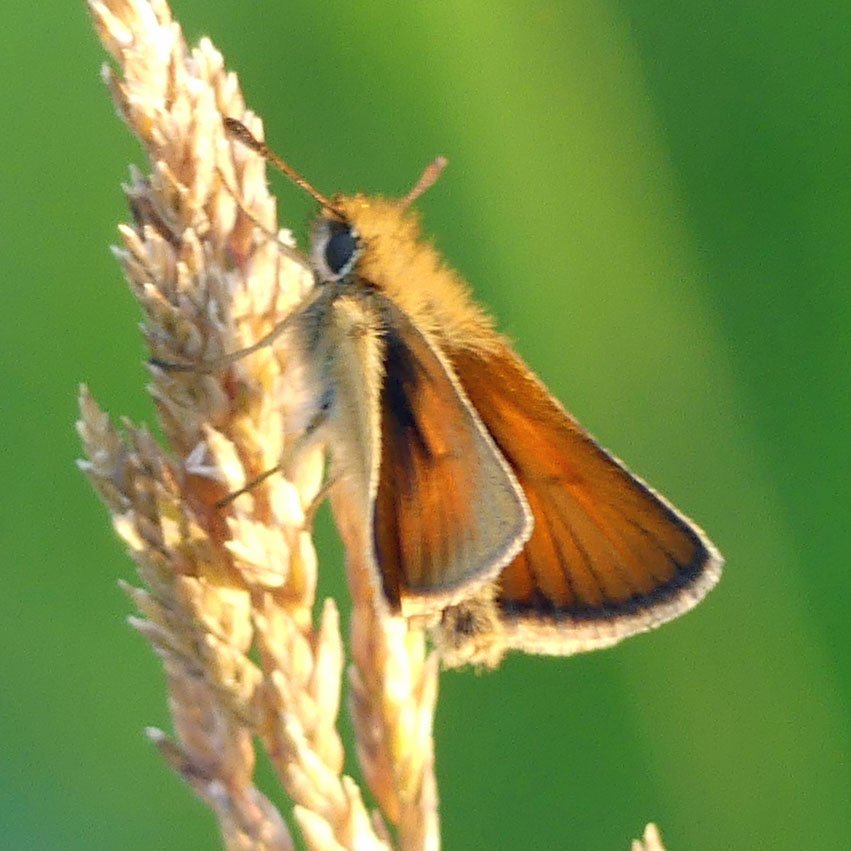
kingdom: Animalia
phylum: Arthropoda
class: Insecta
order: Lepidoptera
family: Hesperiidae
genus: Thymelicus
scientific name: Thymelicus lineola
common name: European Skipper
